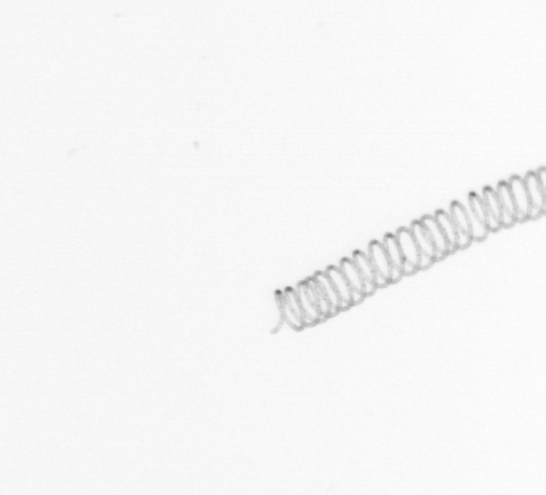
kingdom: Chromista
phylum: Ochrophyta
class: Bacillariophyceae
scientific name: Bacillariophyceae
